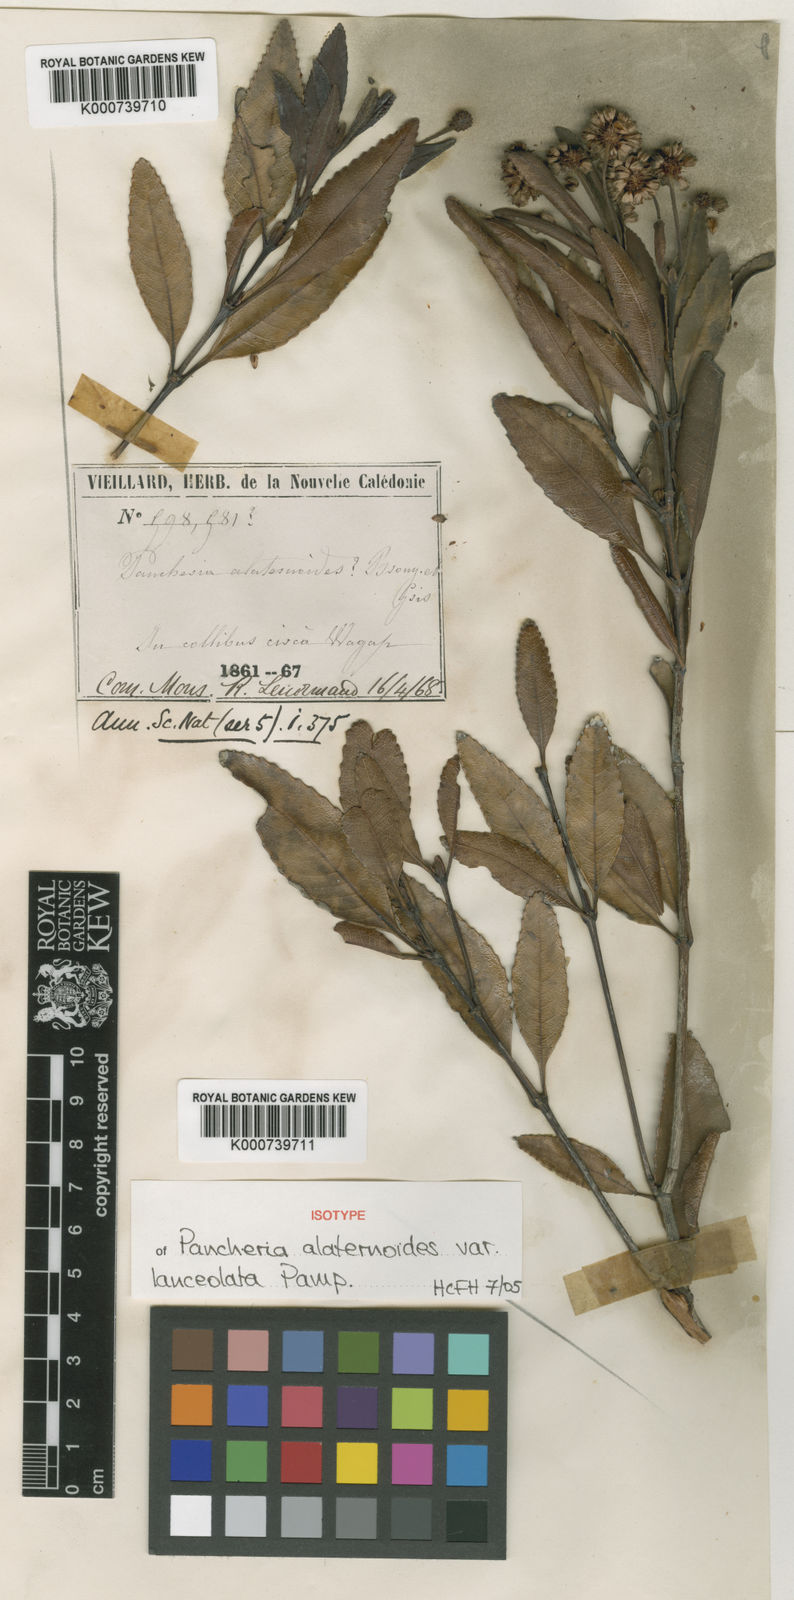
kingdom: Plantae
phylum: Tracheophyta
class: Magnoliopsida
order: Oxalidales
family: Cunoniaceae
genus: Pancheria
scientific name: Pancheria lanceolata
